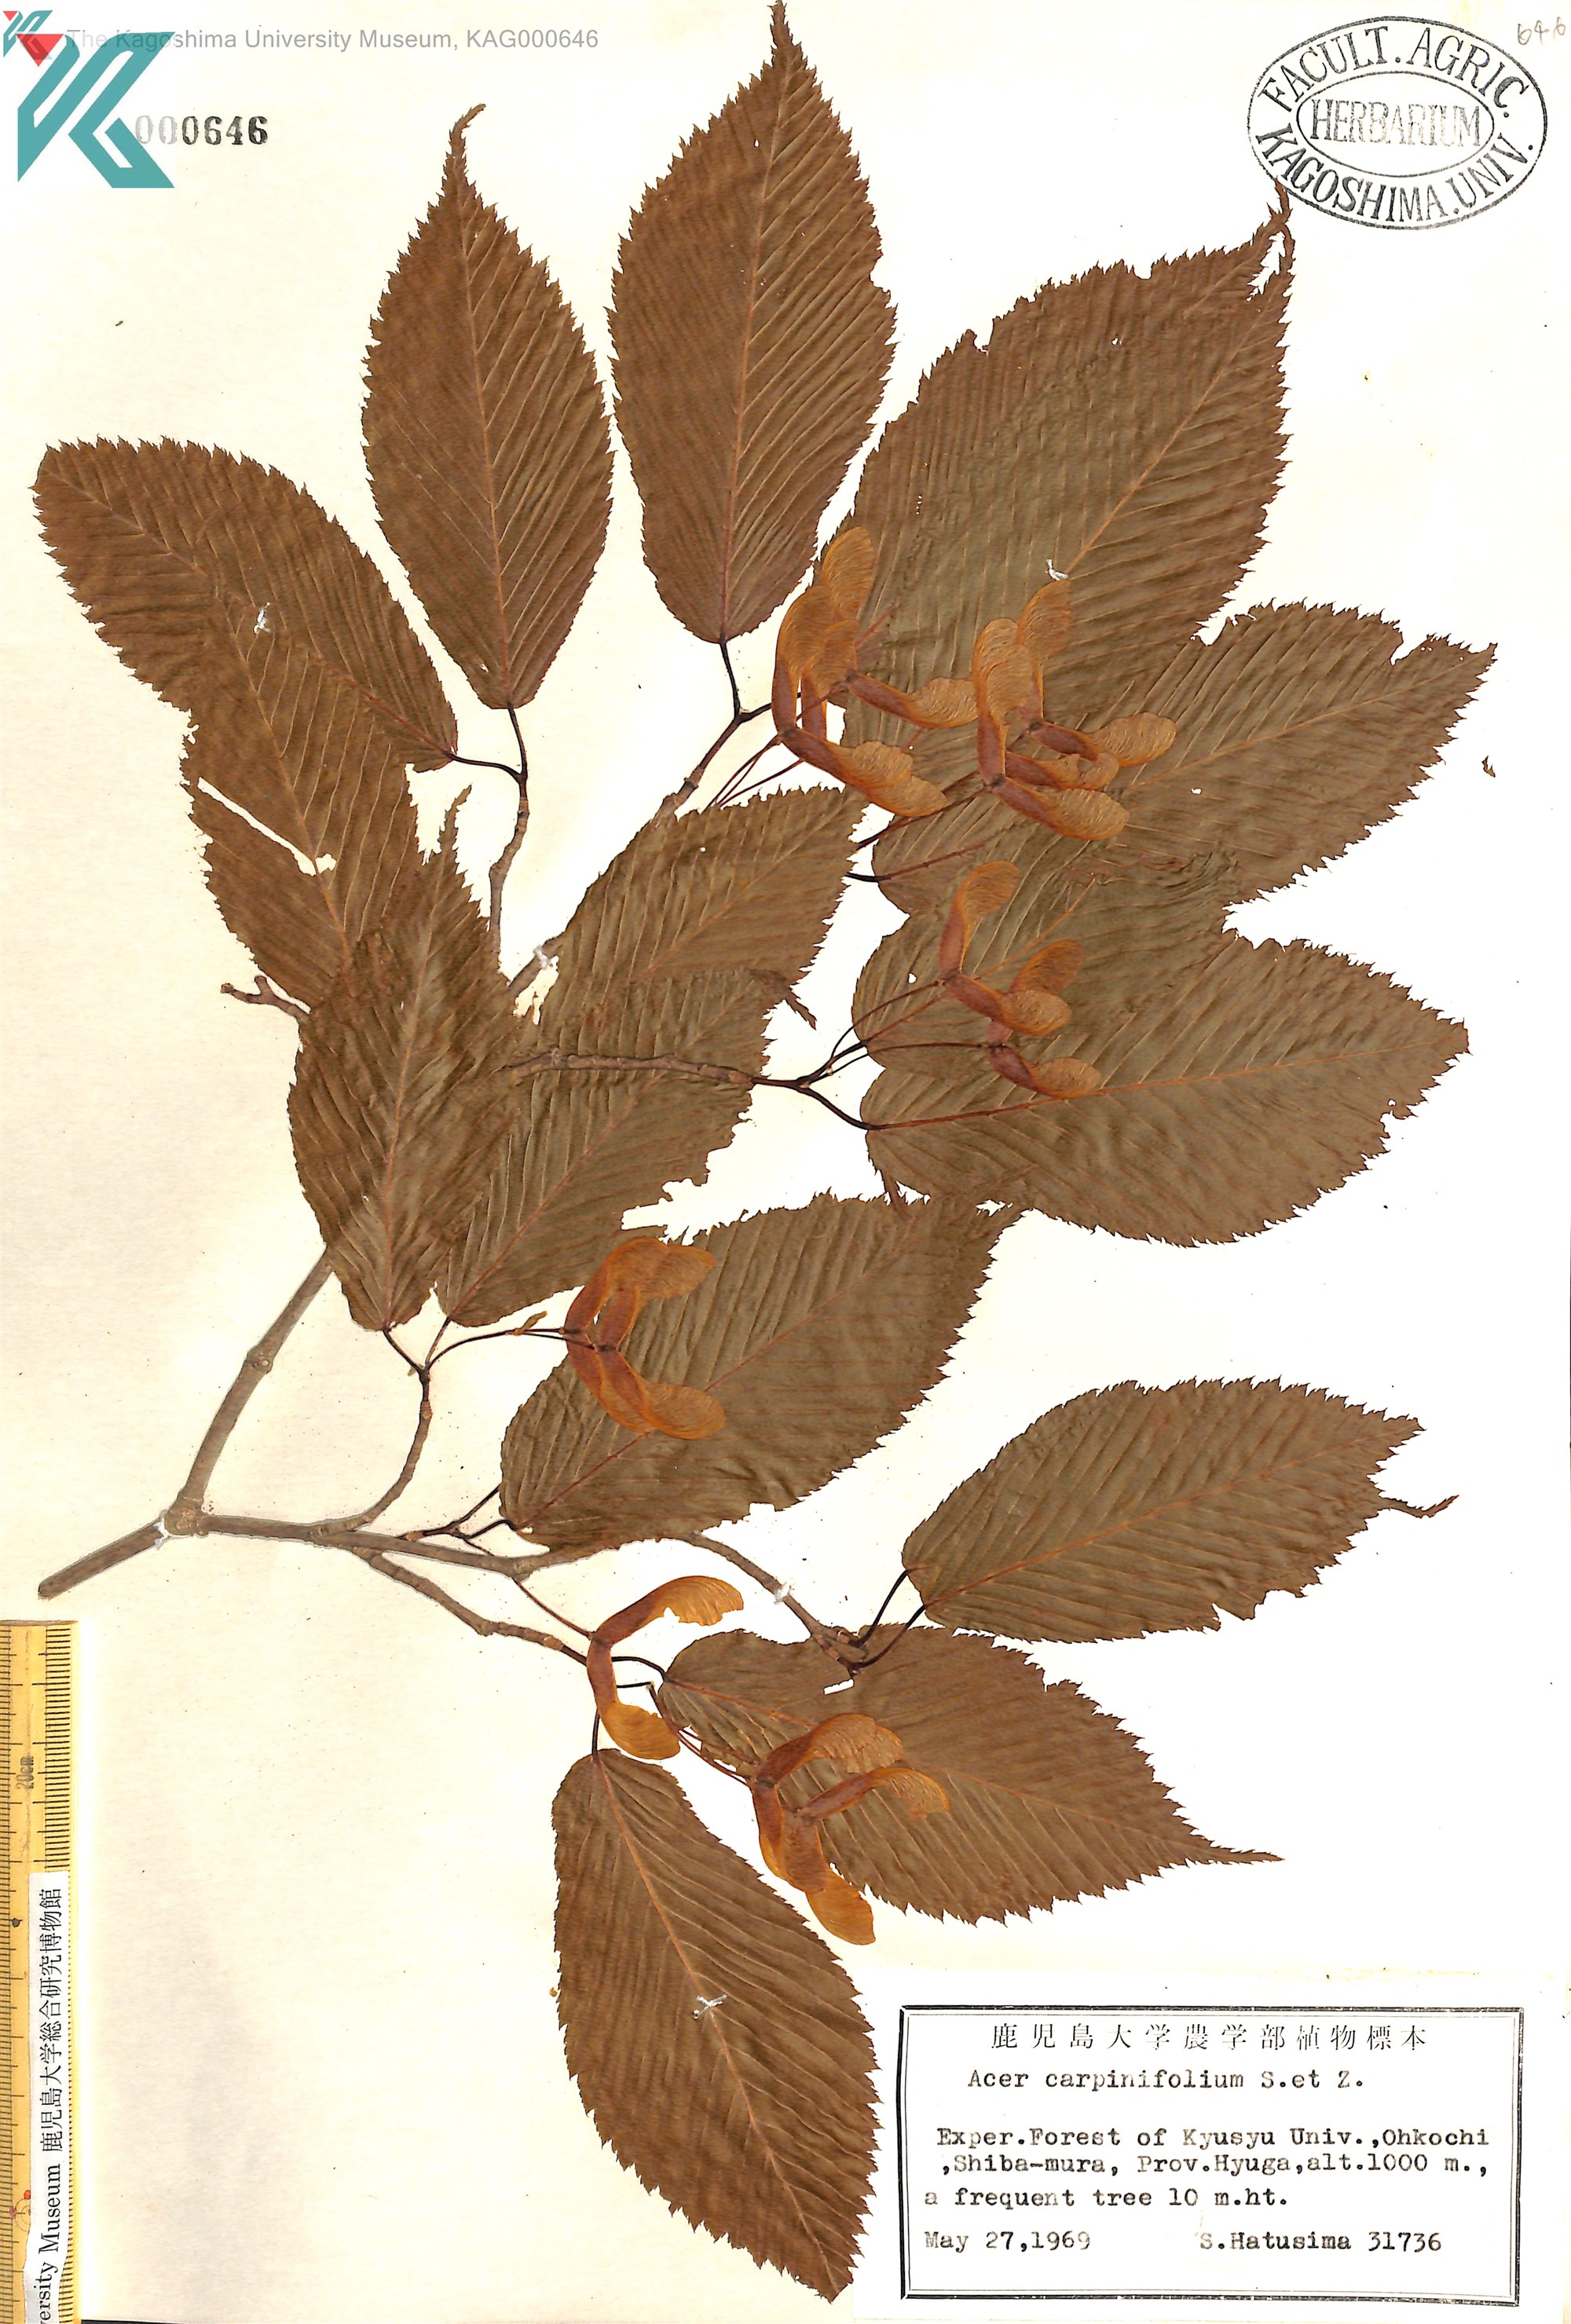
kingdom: Plantae
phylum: Tracheophyta
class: Magnoliopsida
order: Sapindales
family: Sapindaceae
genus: Acer
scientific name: Acer carpinifolium
